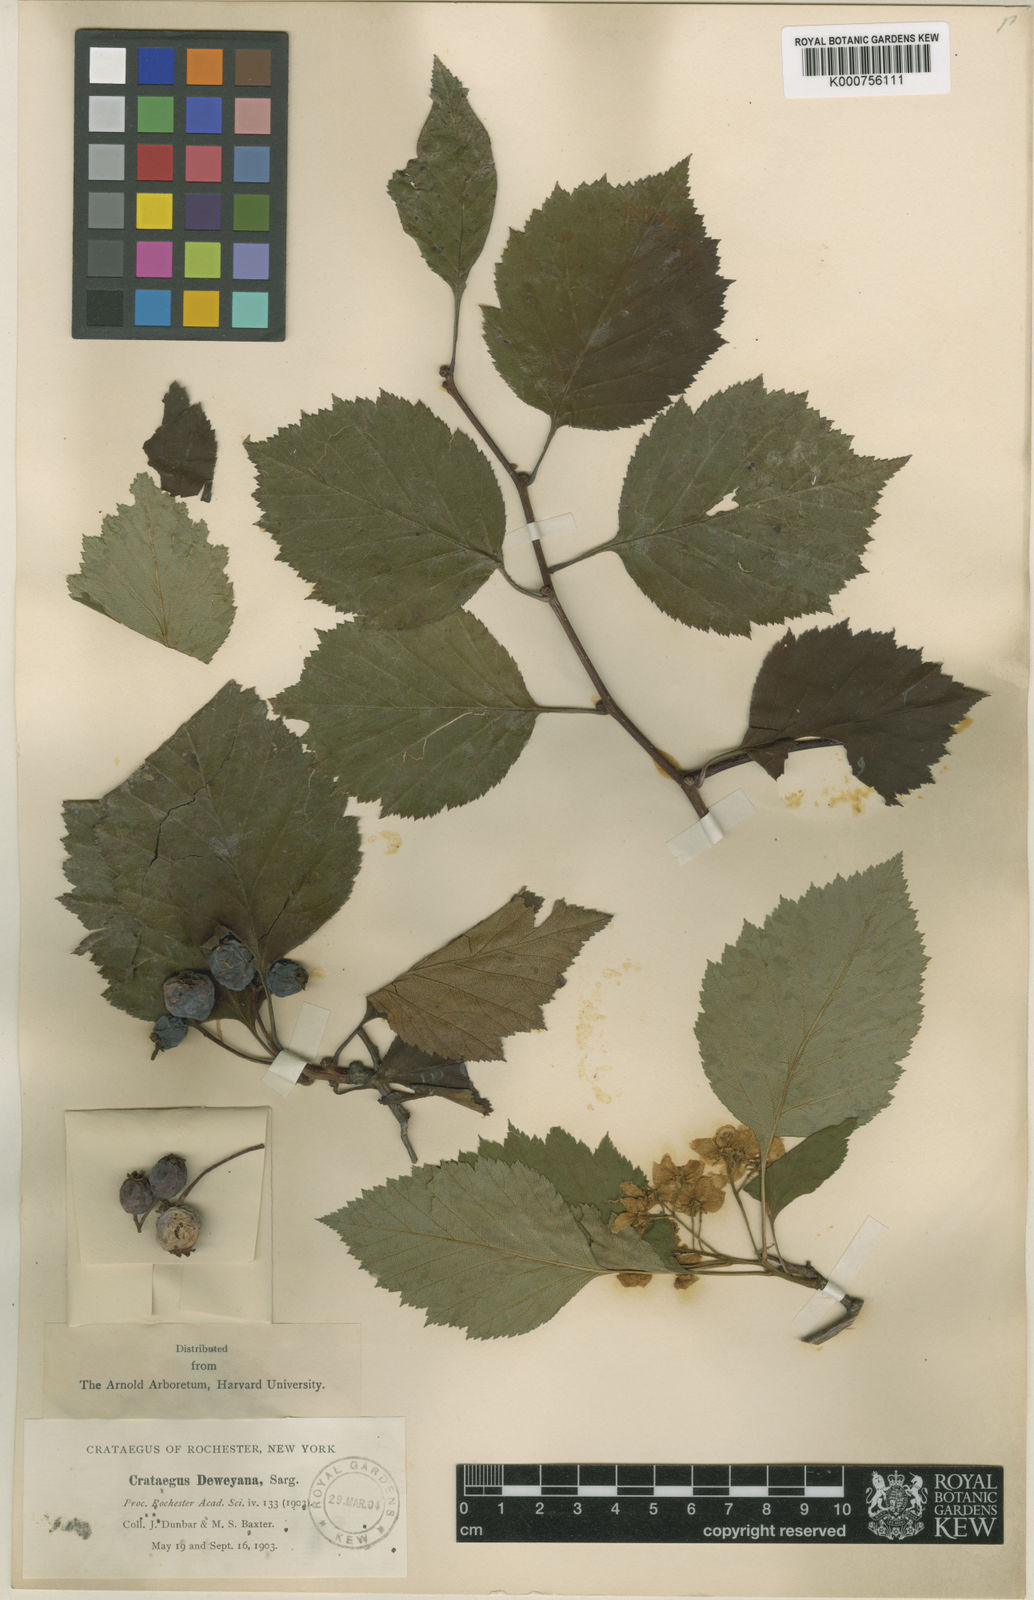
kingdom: Plantae
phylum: Tracheophyta
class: Magnoliopsida
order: Rosales
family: Rosaceae
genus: Crataegus
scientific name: Crataegus deweyana
